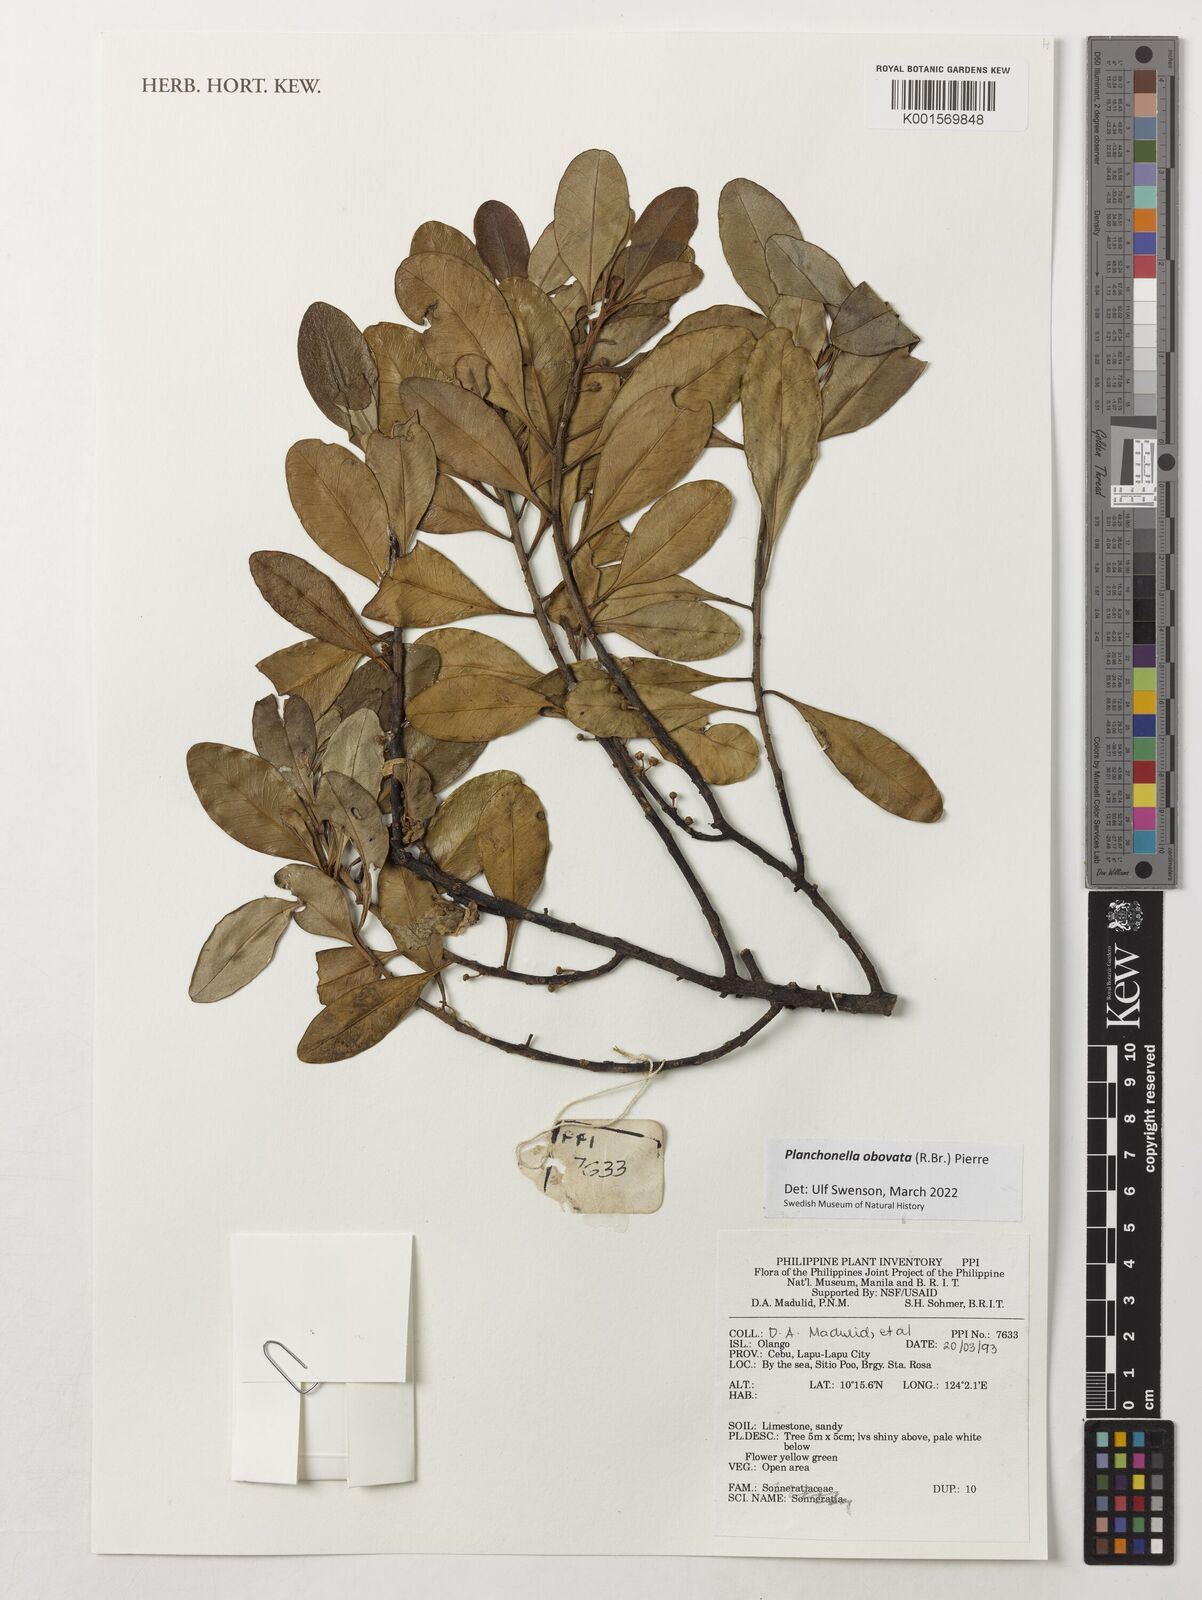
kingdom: Plantae
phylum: Tracheophyta
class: Magnoliopsida
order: Ericales
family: Sapotaceae
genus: Planchonella
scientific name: Planchonella obovata
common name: Black-ash
